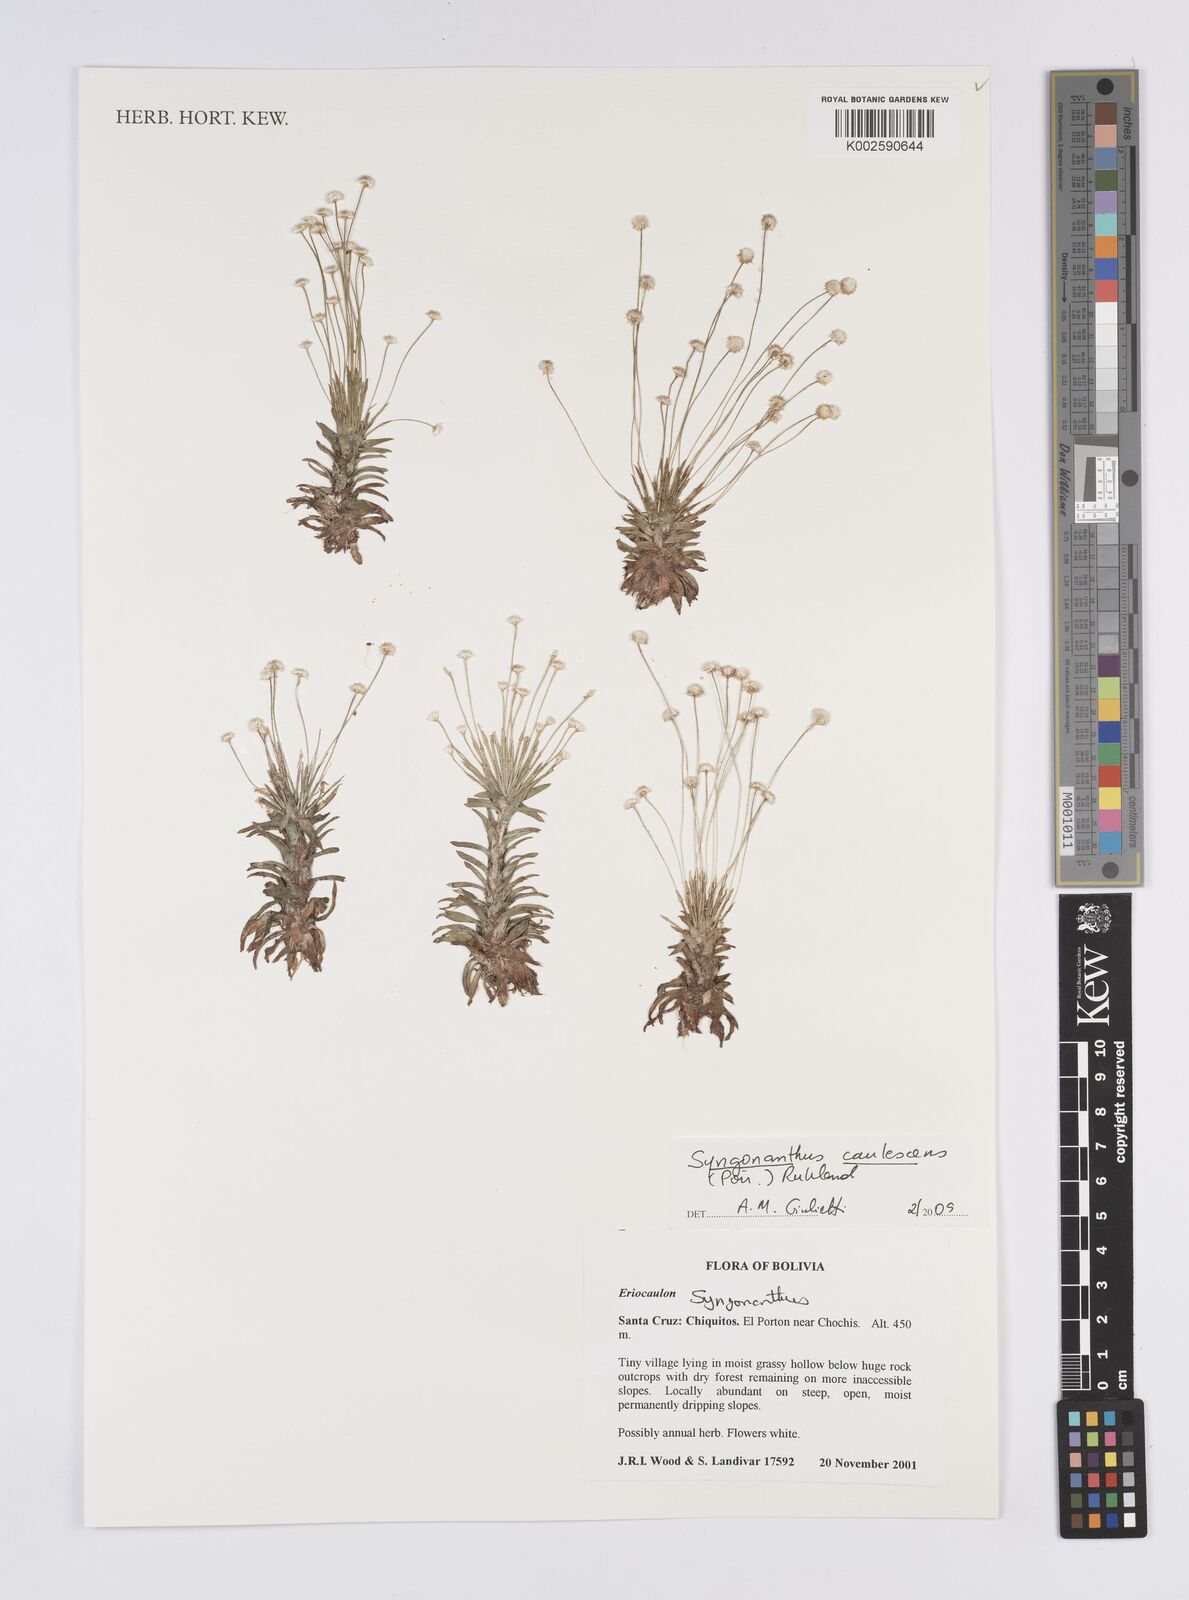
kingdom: Plantae
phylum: Tracheophyta
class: Liliopsida
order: Poales
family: Eriocaulaceae
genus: Syngonanthus
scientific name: Syngonanthus caulescens
